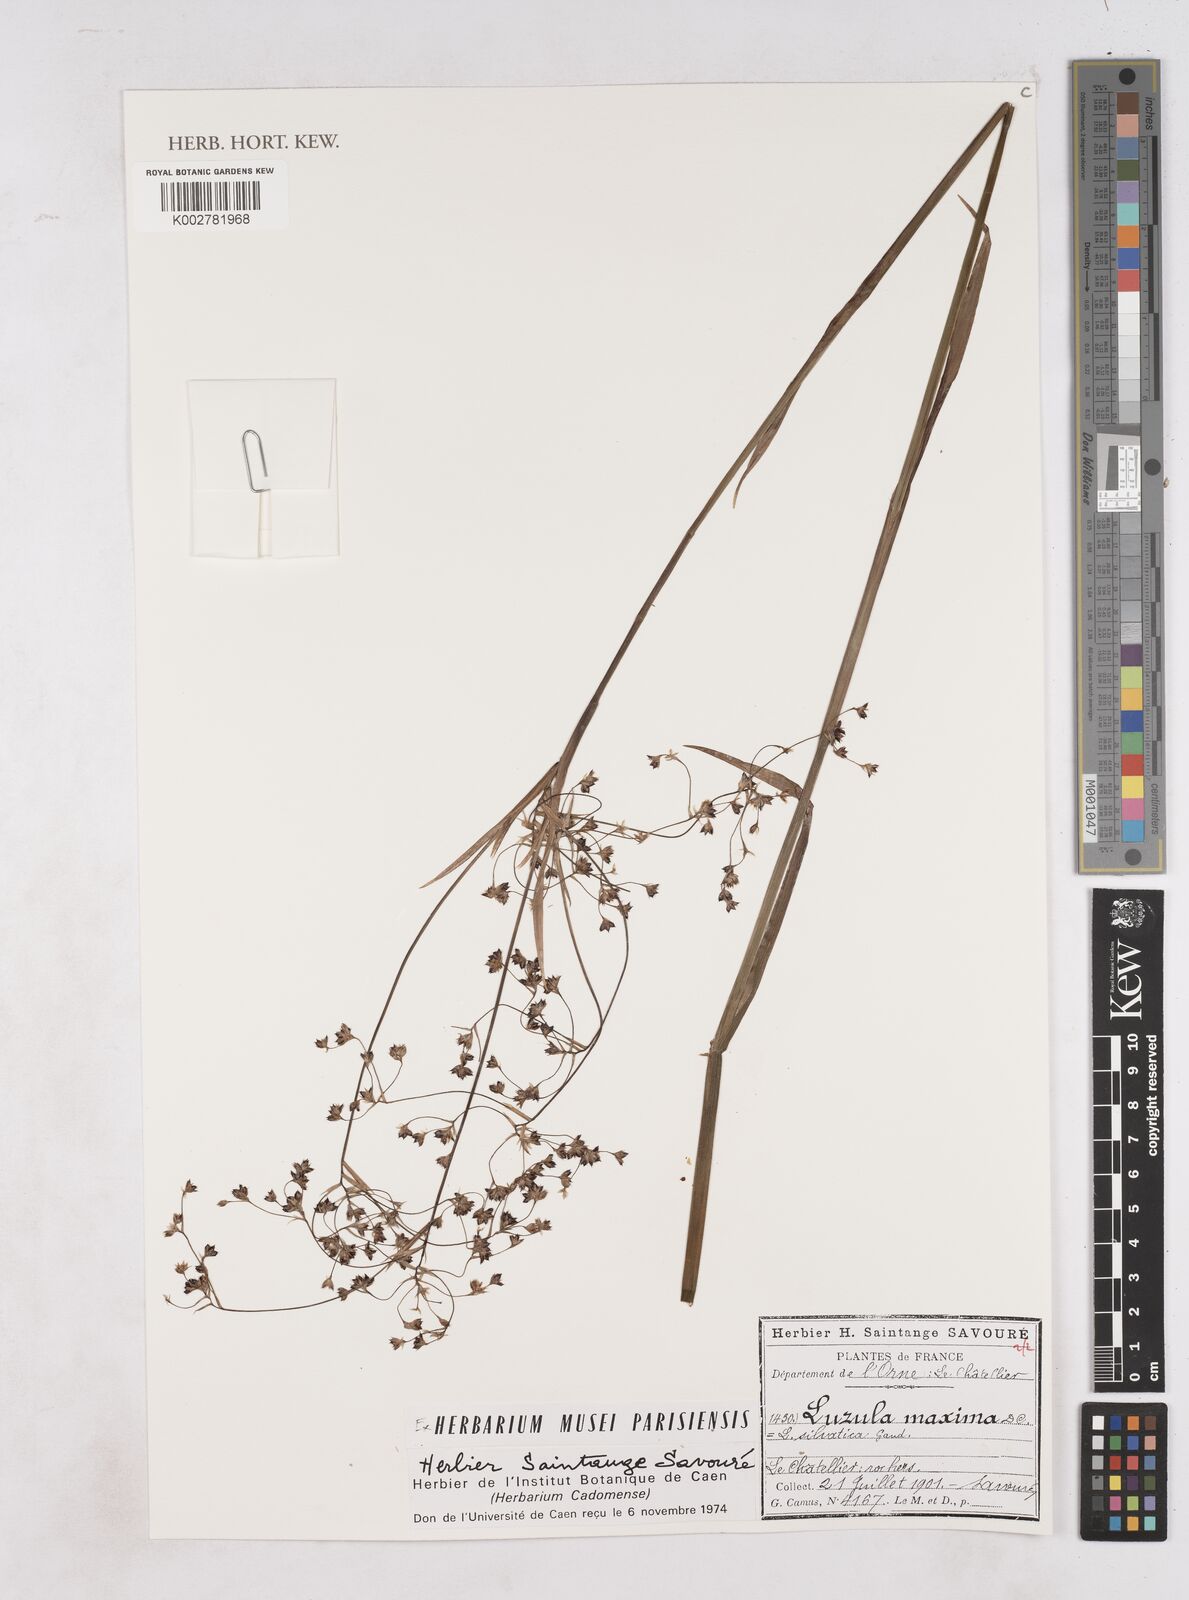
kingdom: Plantae
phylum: Tracheophyta
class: Liliopsida
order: Poales
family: Juncaceae
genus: Luzula
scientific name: Luzula sylvatica
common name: Great wood-rush
